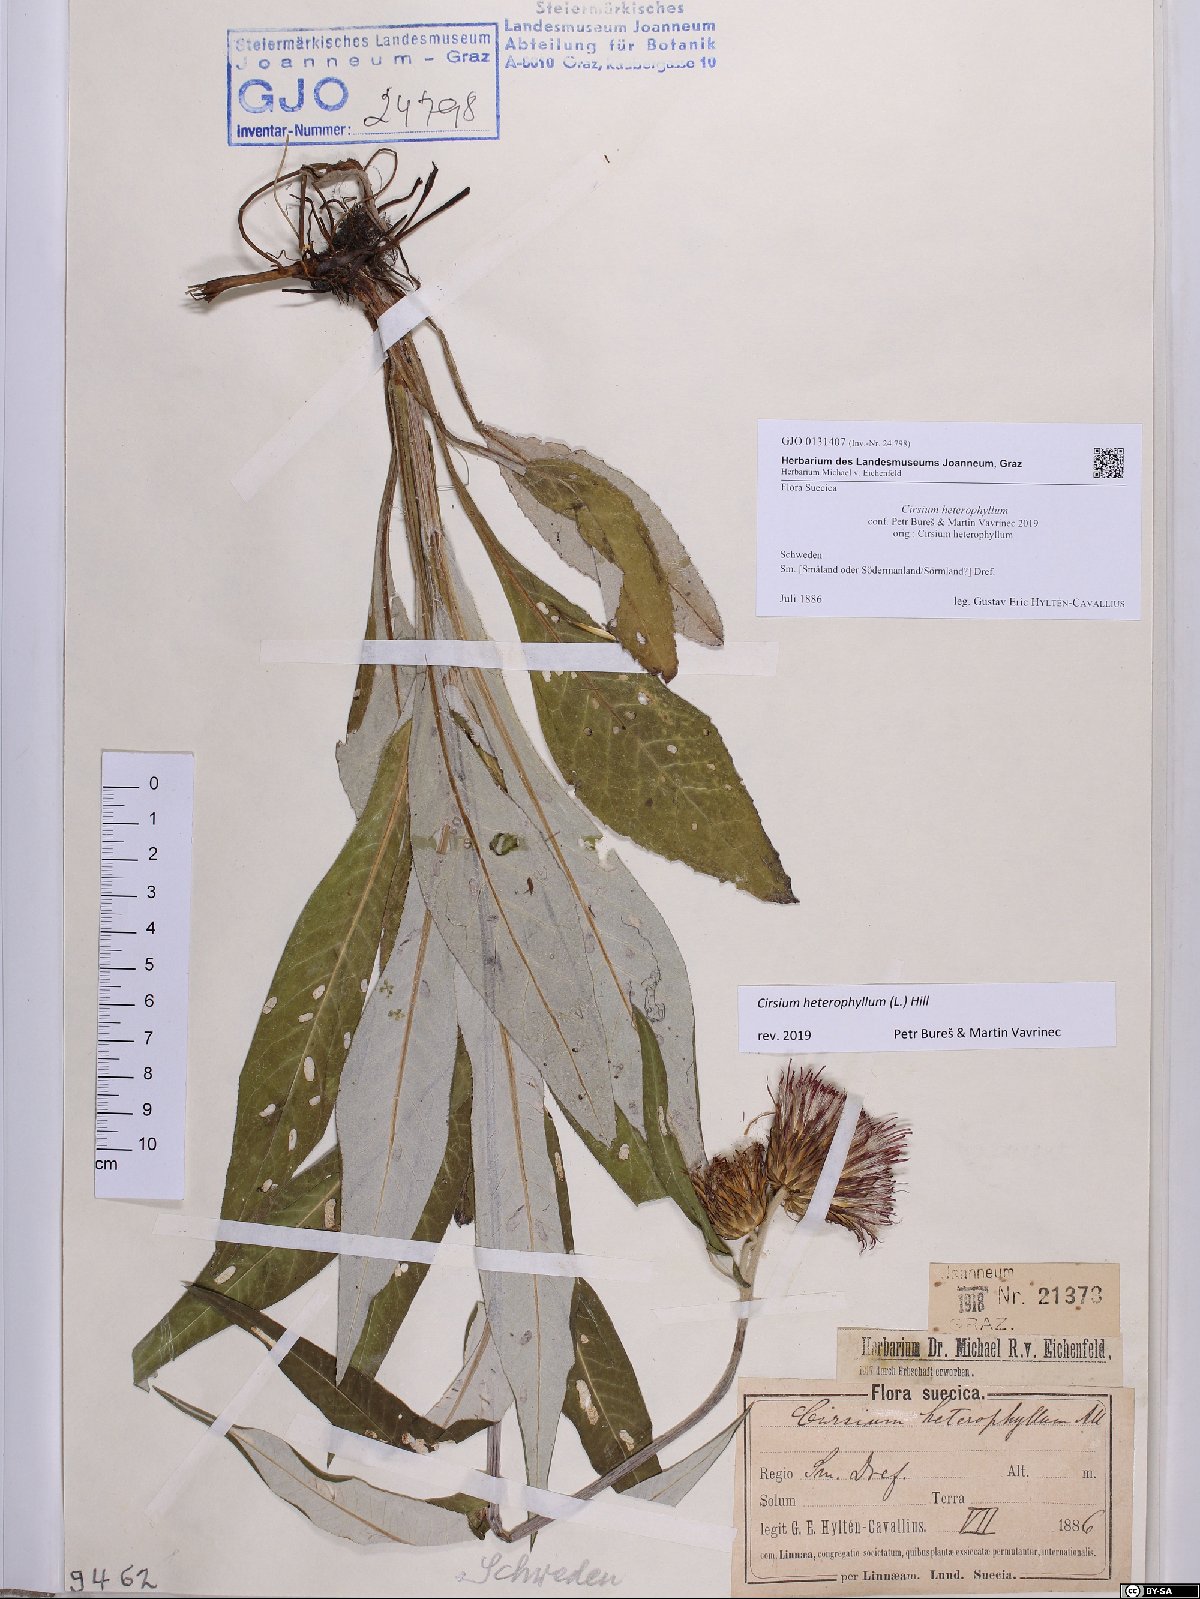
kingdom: Plantae
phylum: Tracheophyta
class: Magnoliopsida
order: Asterales
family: Asteraceae
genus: Cirsium
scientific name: Cirsium heterophyllum
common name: Melancholy thistle
